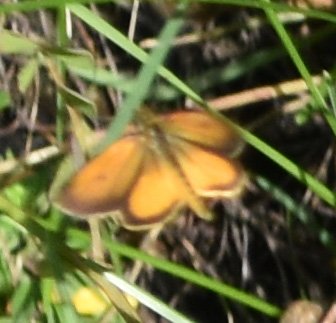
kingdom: Animalia
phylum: Arthropoda
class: Insecta
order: Lepidoptera
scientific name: Lepidoptera
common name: Butterflies
